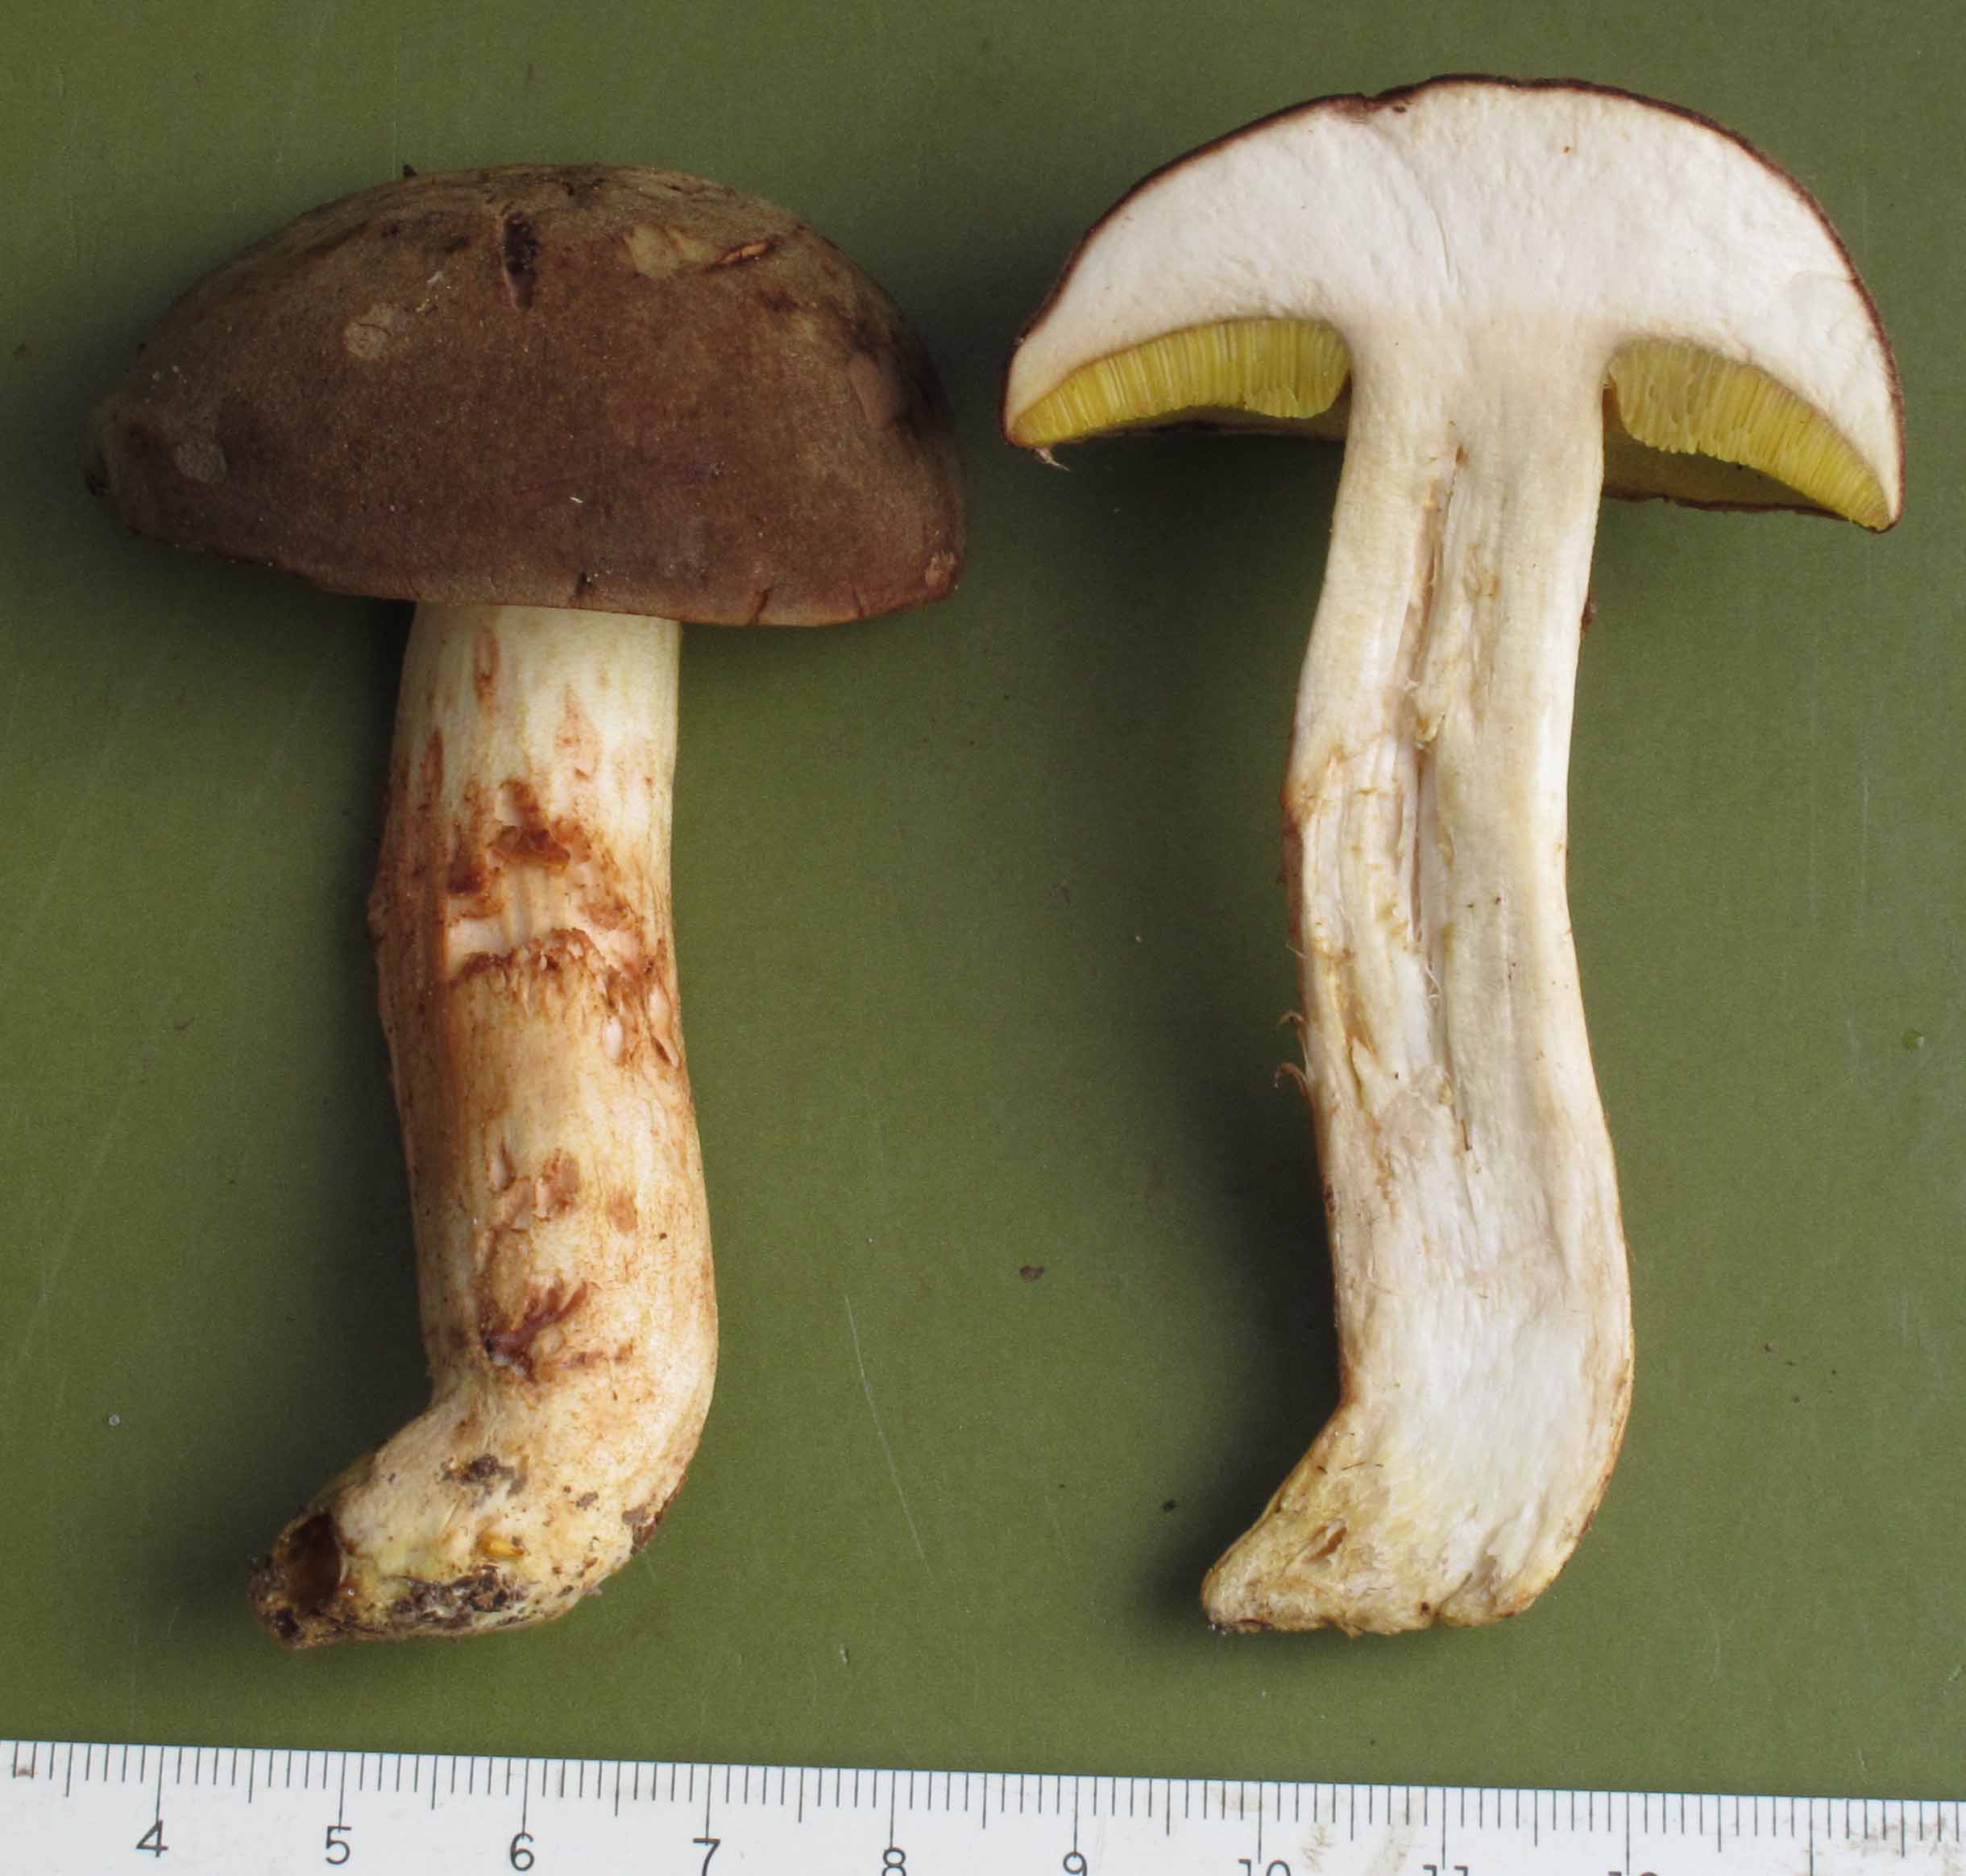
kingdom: Fungi
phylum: Basidiomycota
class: Agaricomycetes
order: Boletales
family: Boletaceae
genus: Xerocomus
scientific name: Xerocomus ferrugineus
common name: vaskeskinds-rørhat
